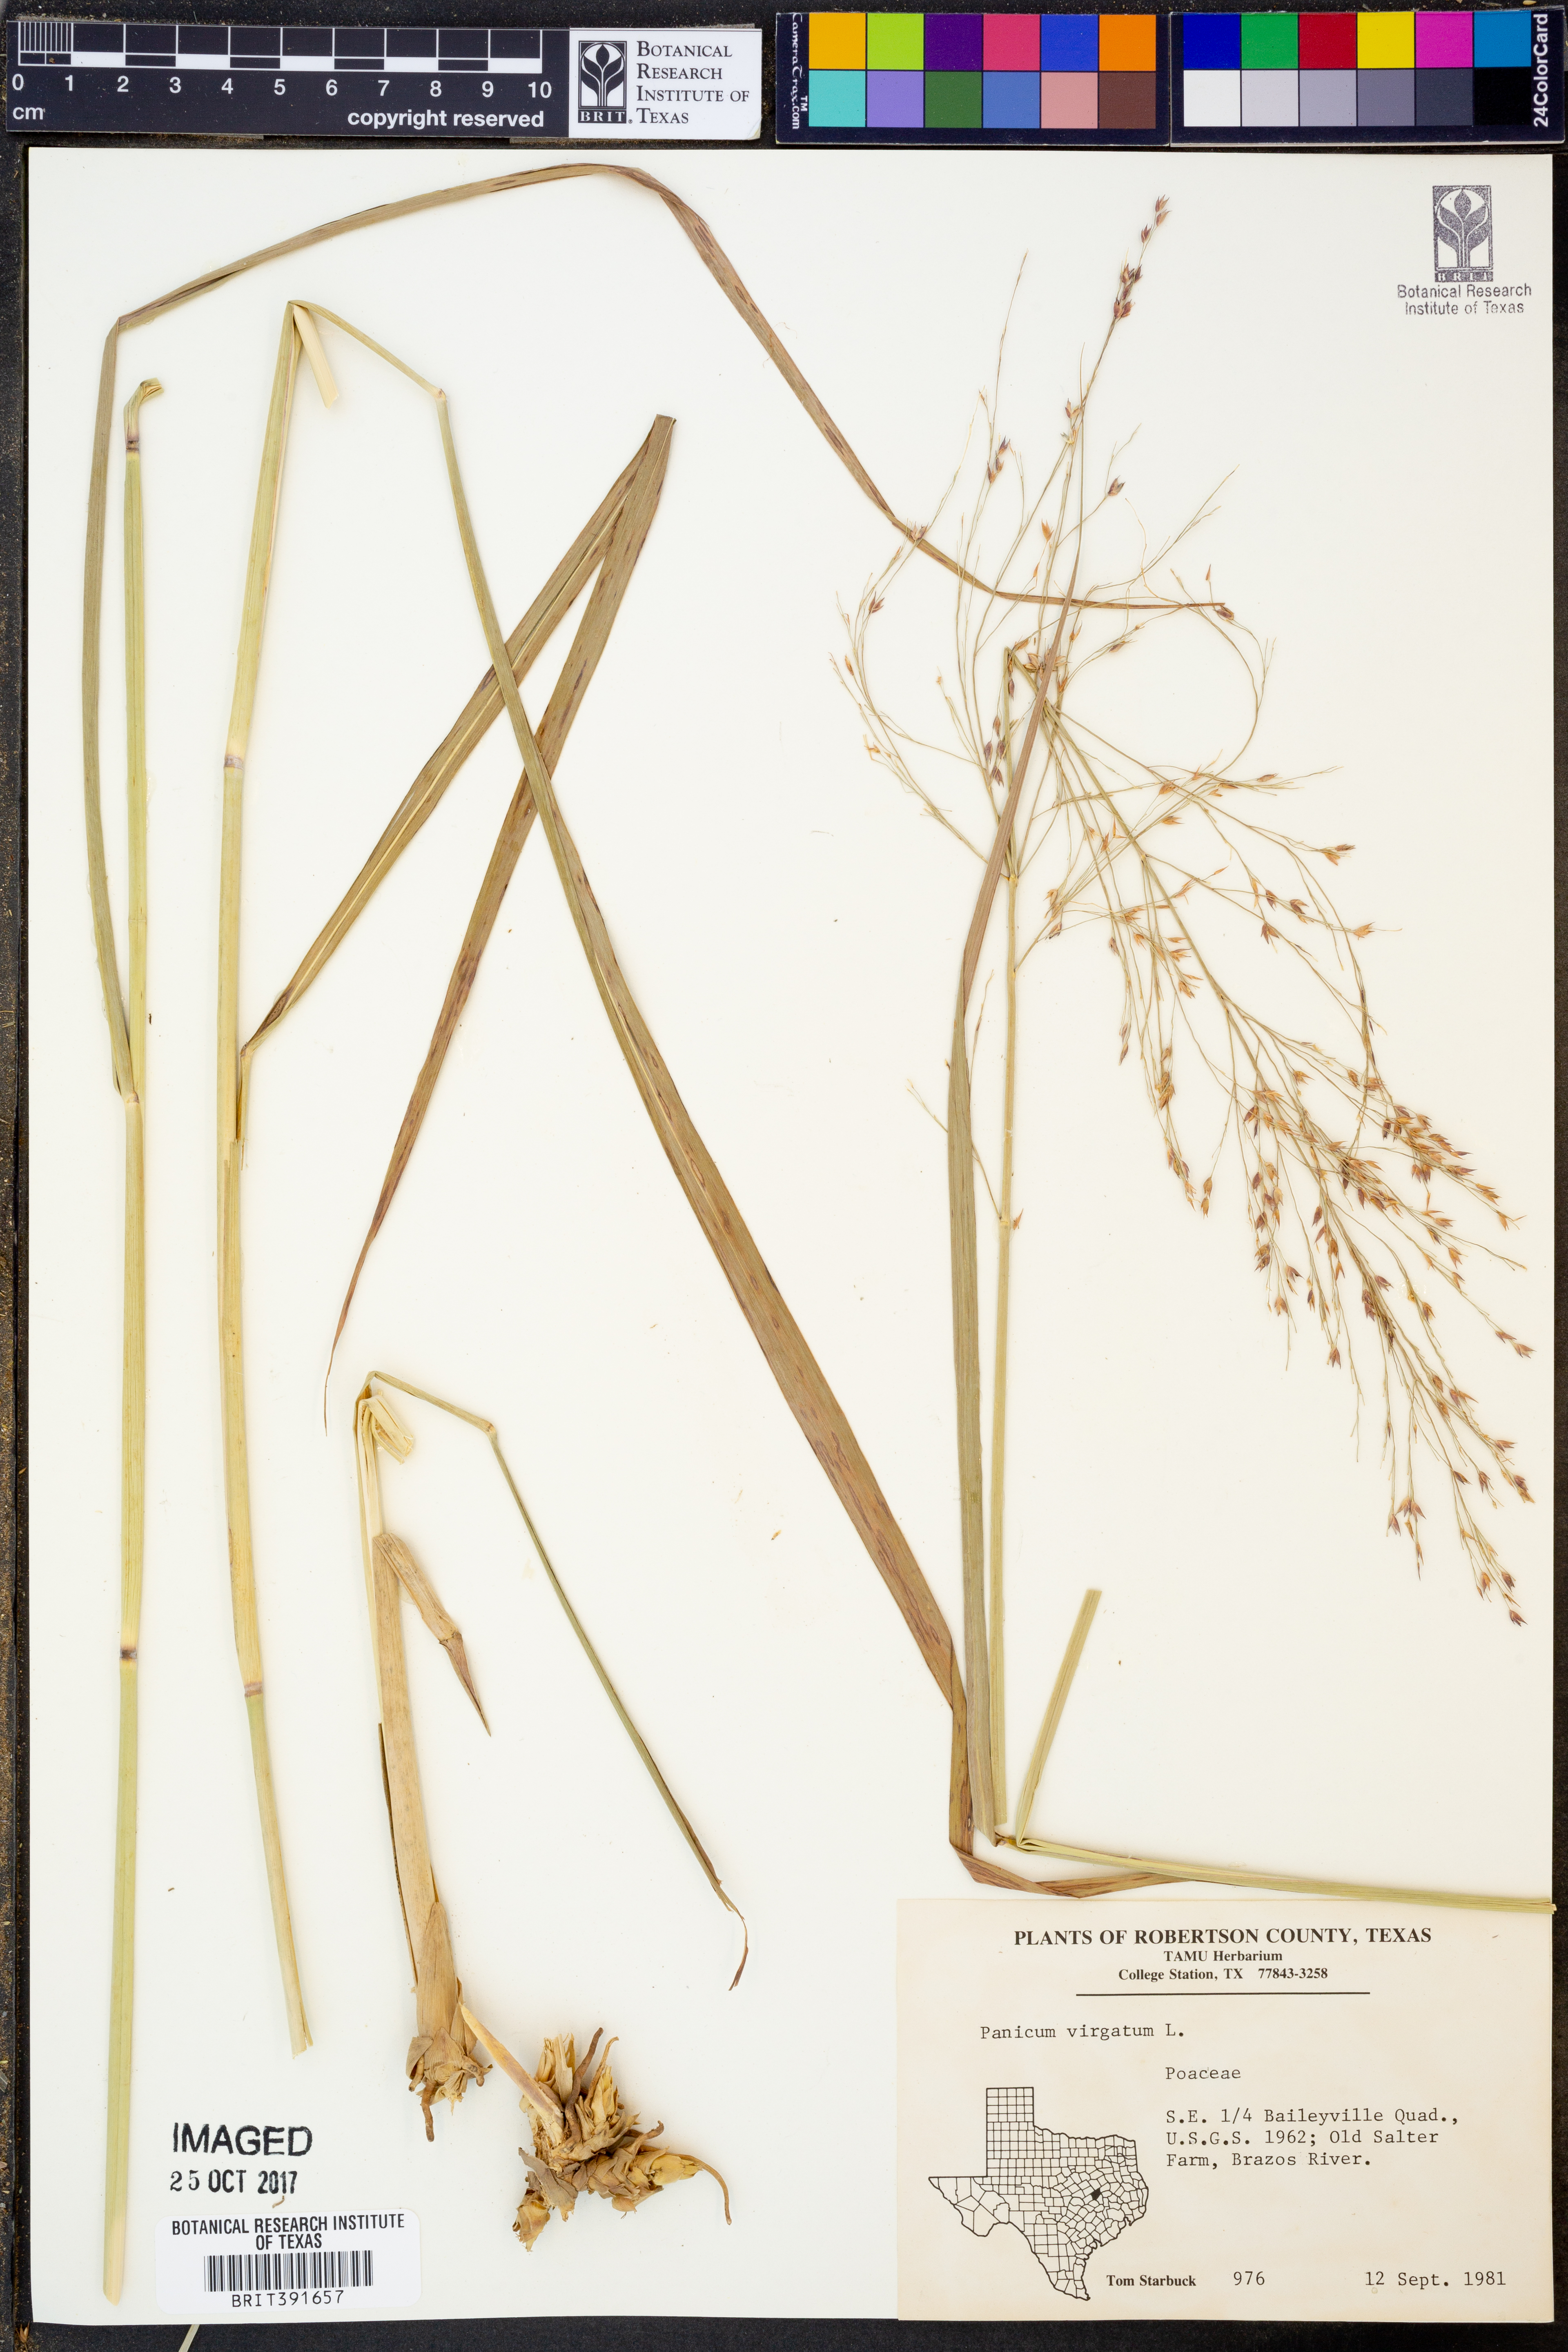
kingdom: Plantae
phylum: Tracheophyta
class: Liliopsida
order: Poales
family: Poaceae
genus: Panicum
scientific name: Panicum virgatum
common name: Switchgrass
